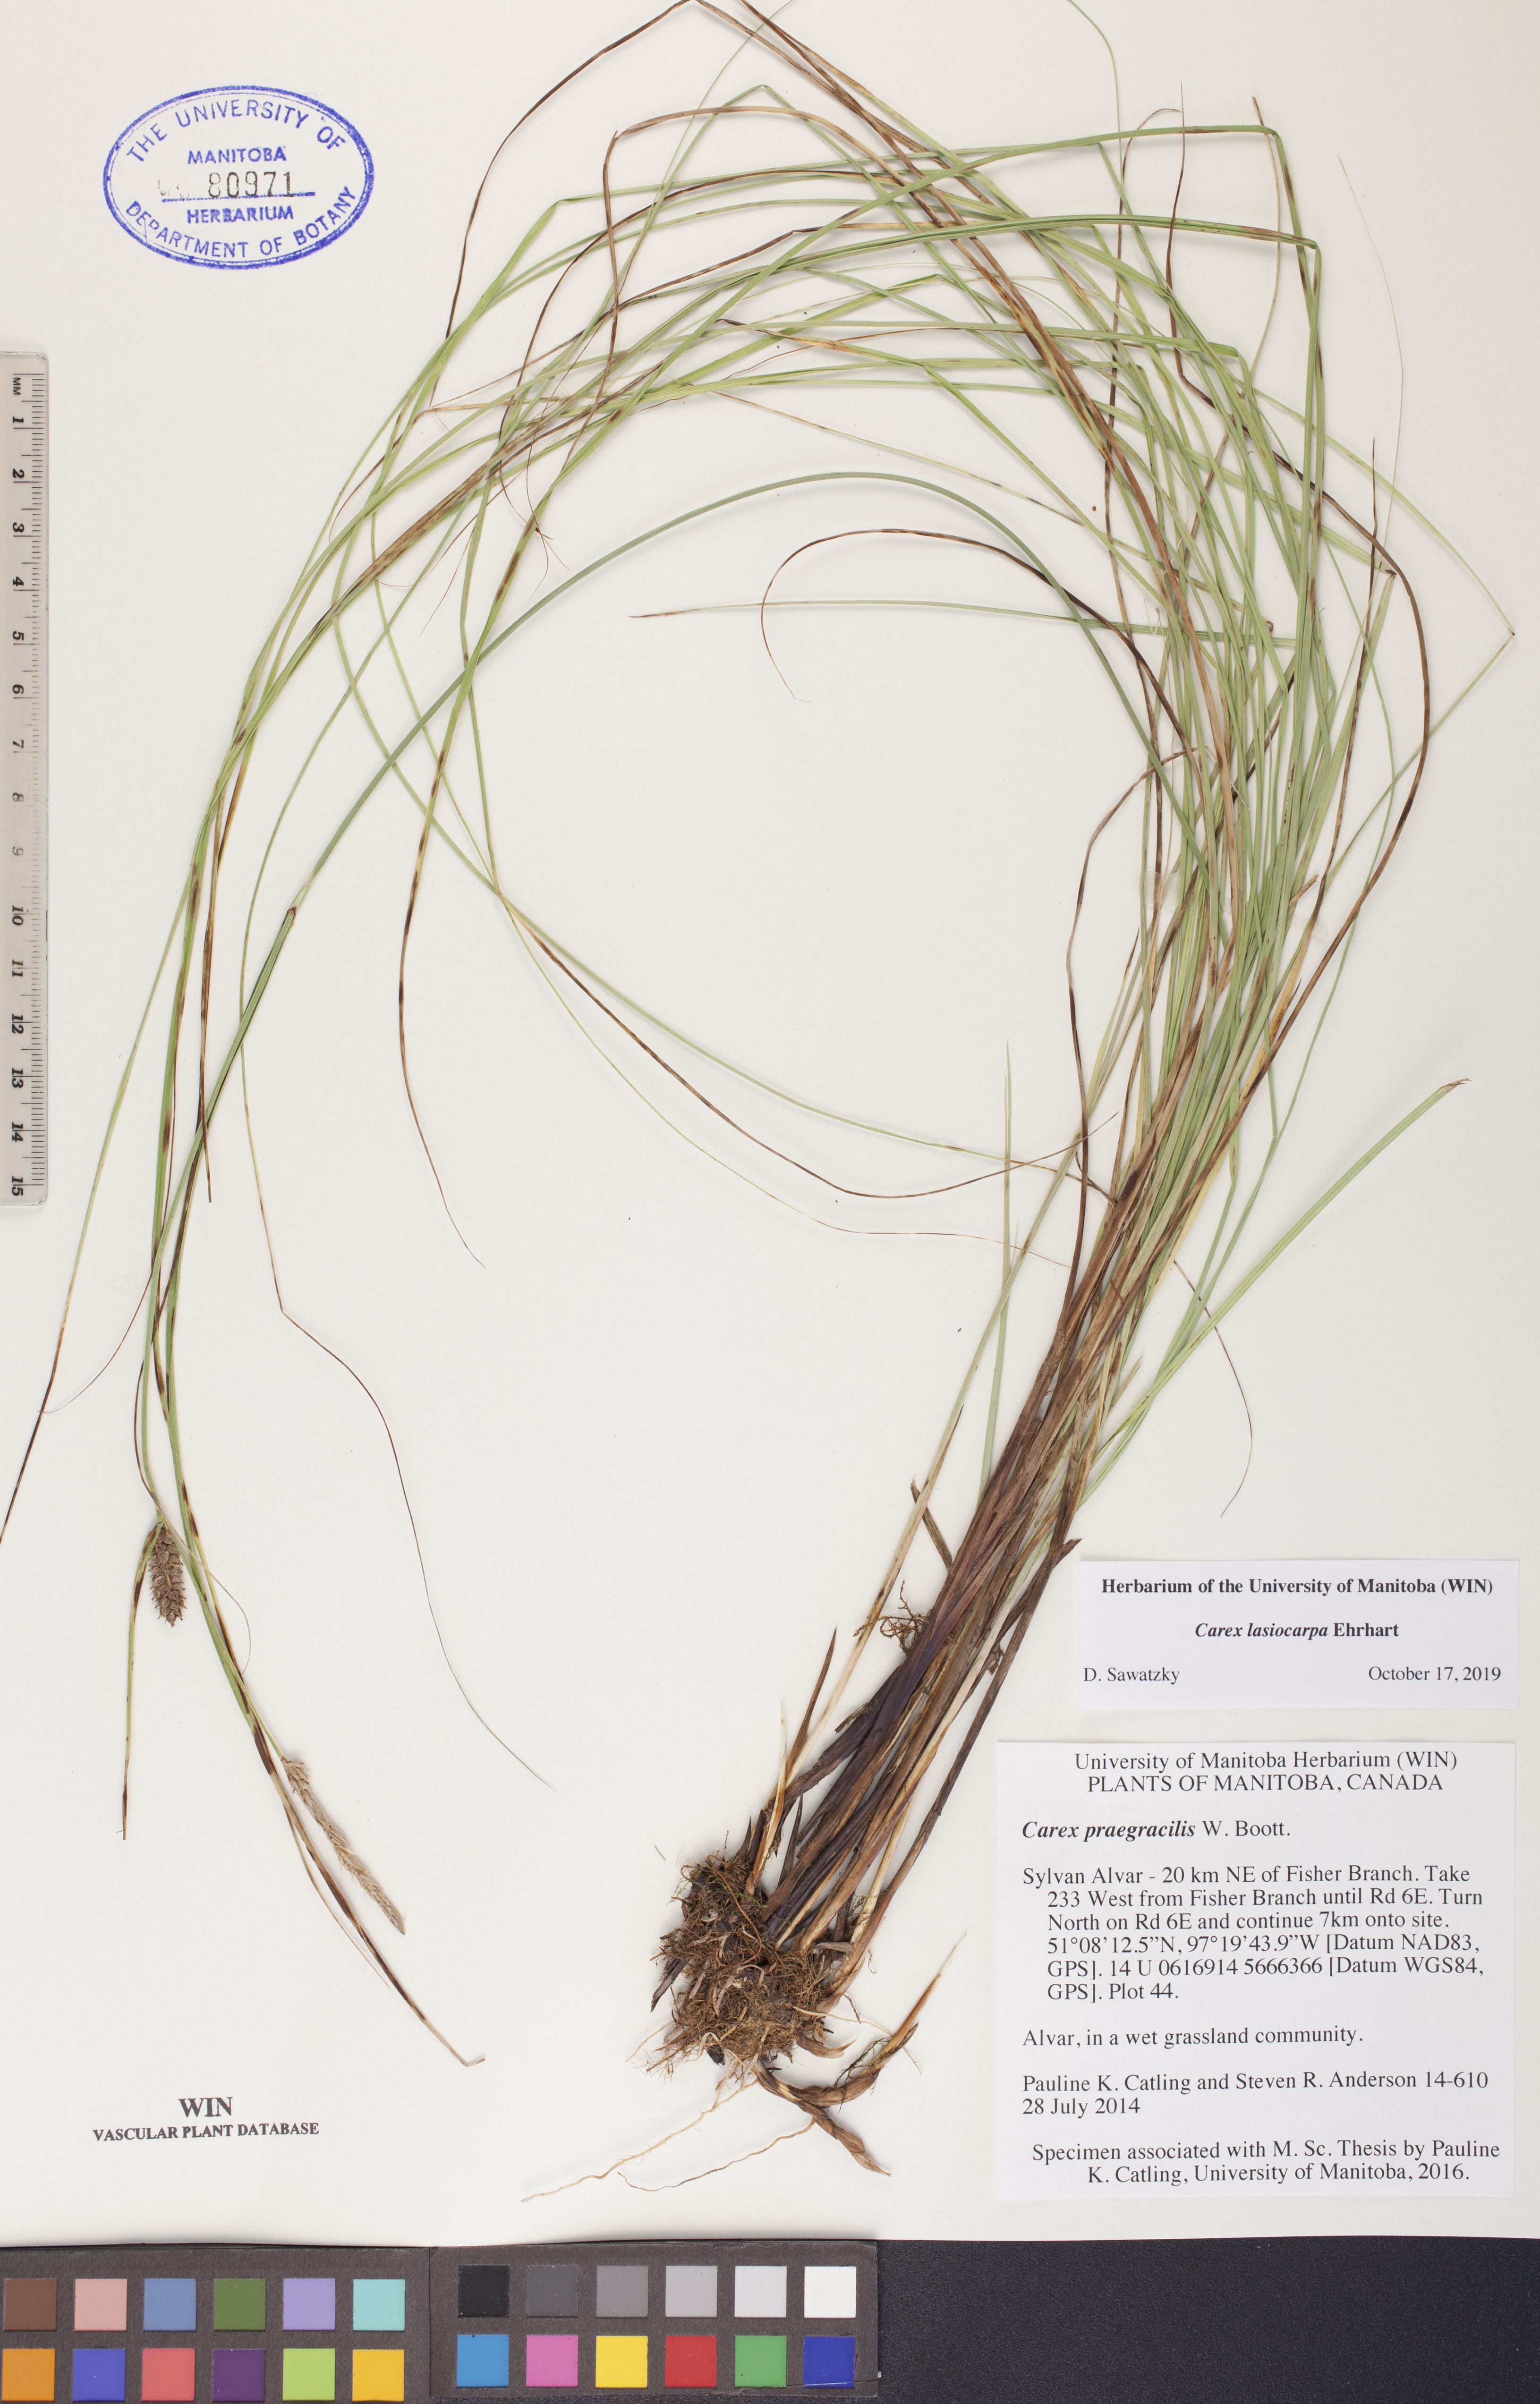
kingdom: Plantae
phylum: Tracheophyta
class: Liliopsida
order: Poales
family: Cyperaceae
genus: Carex
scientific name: Carex lasiocarpa
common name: Slender sedge
